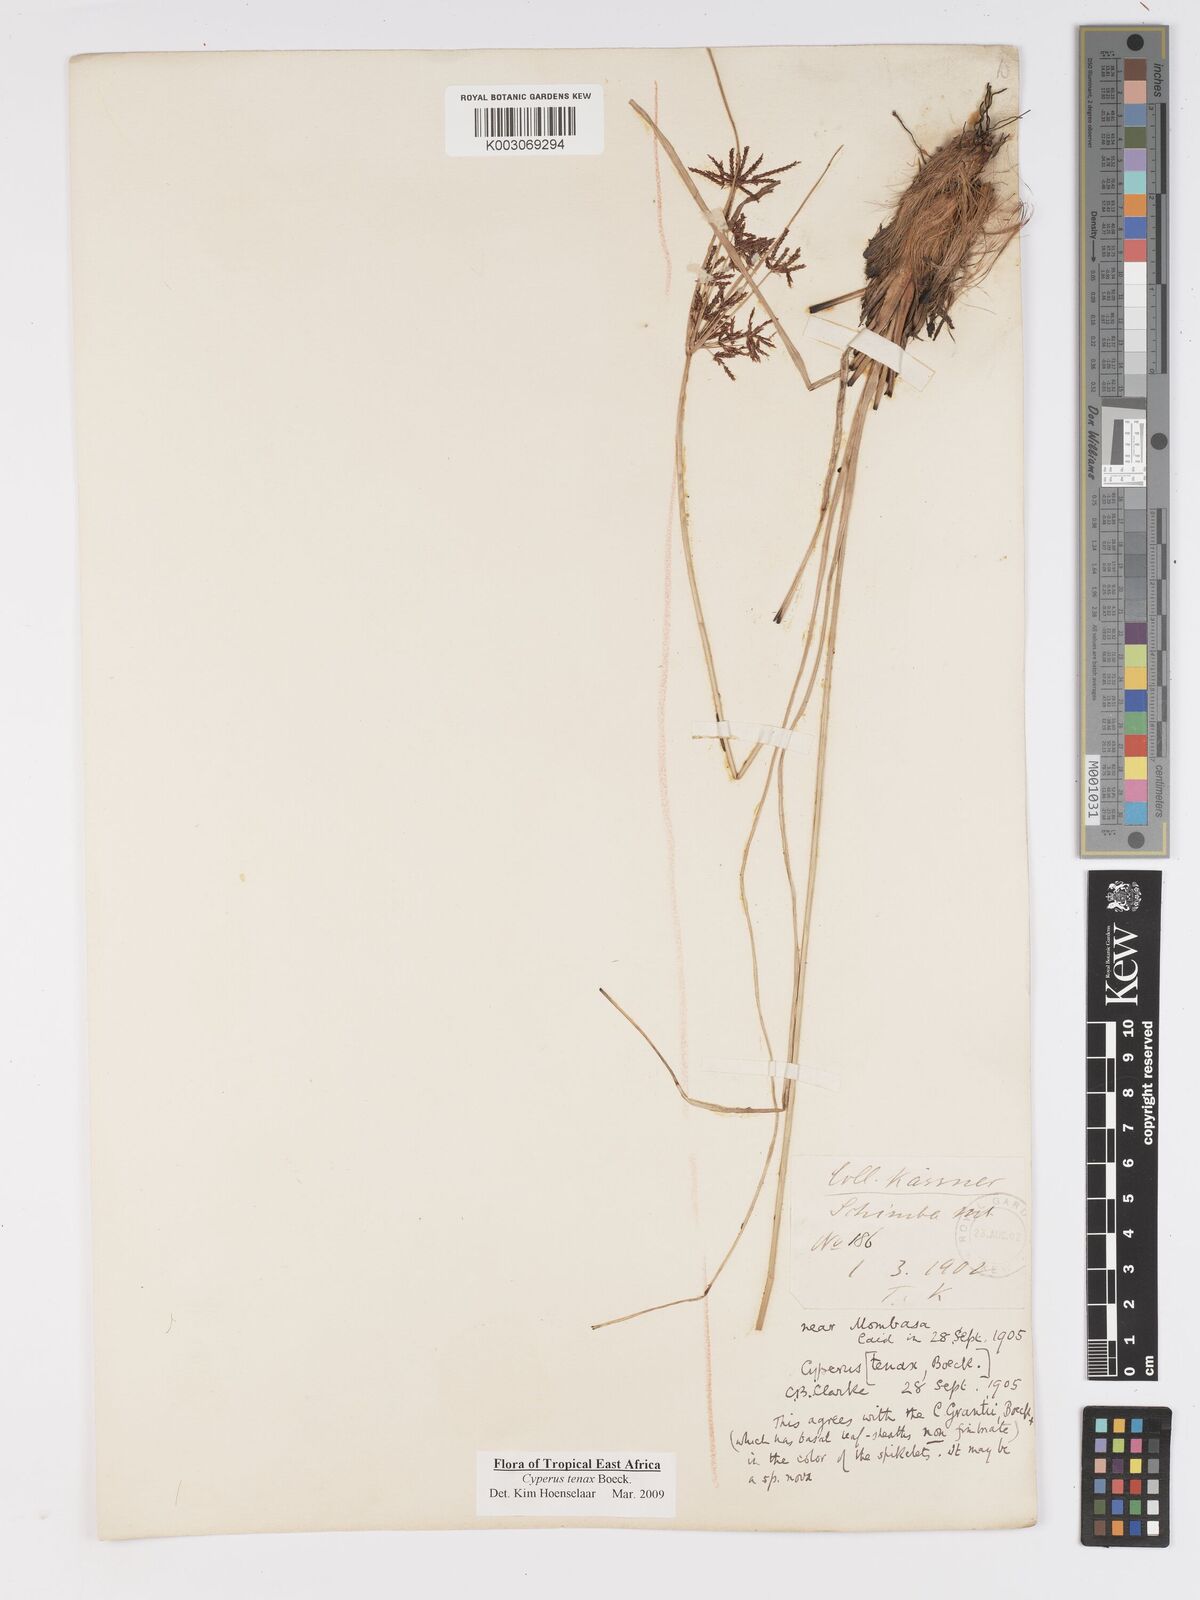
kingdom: Plantae
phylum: Tracheophyta
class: Liliopsida
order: Poales
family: Cyperaceae
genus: Cyperus
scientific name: Cyperus tenax
